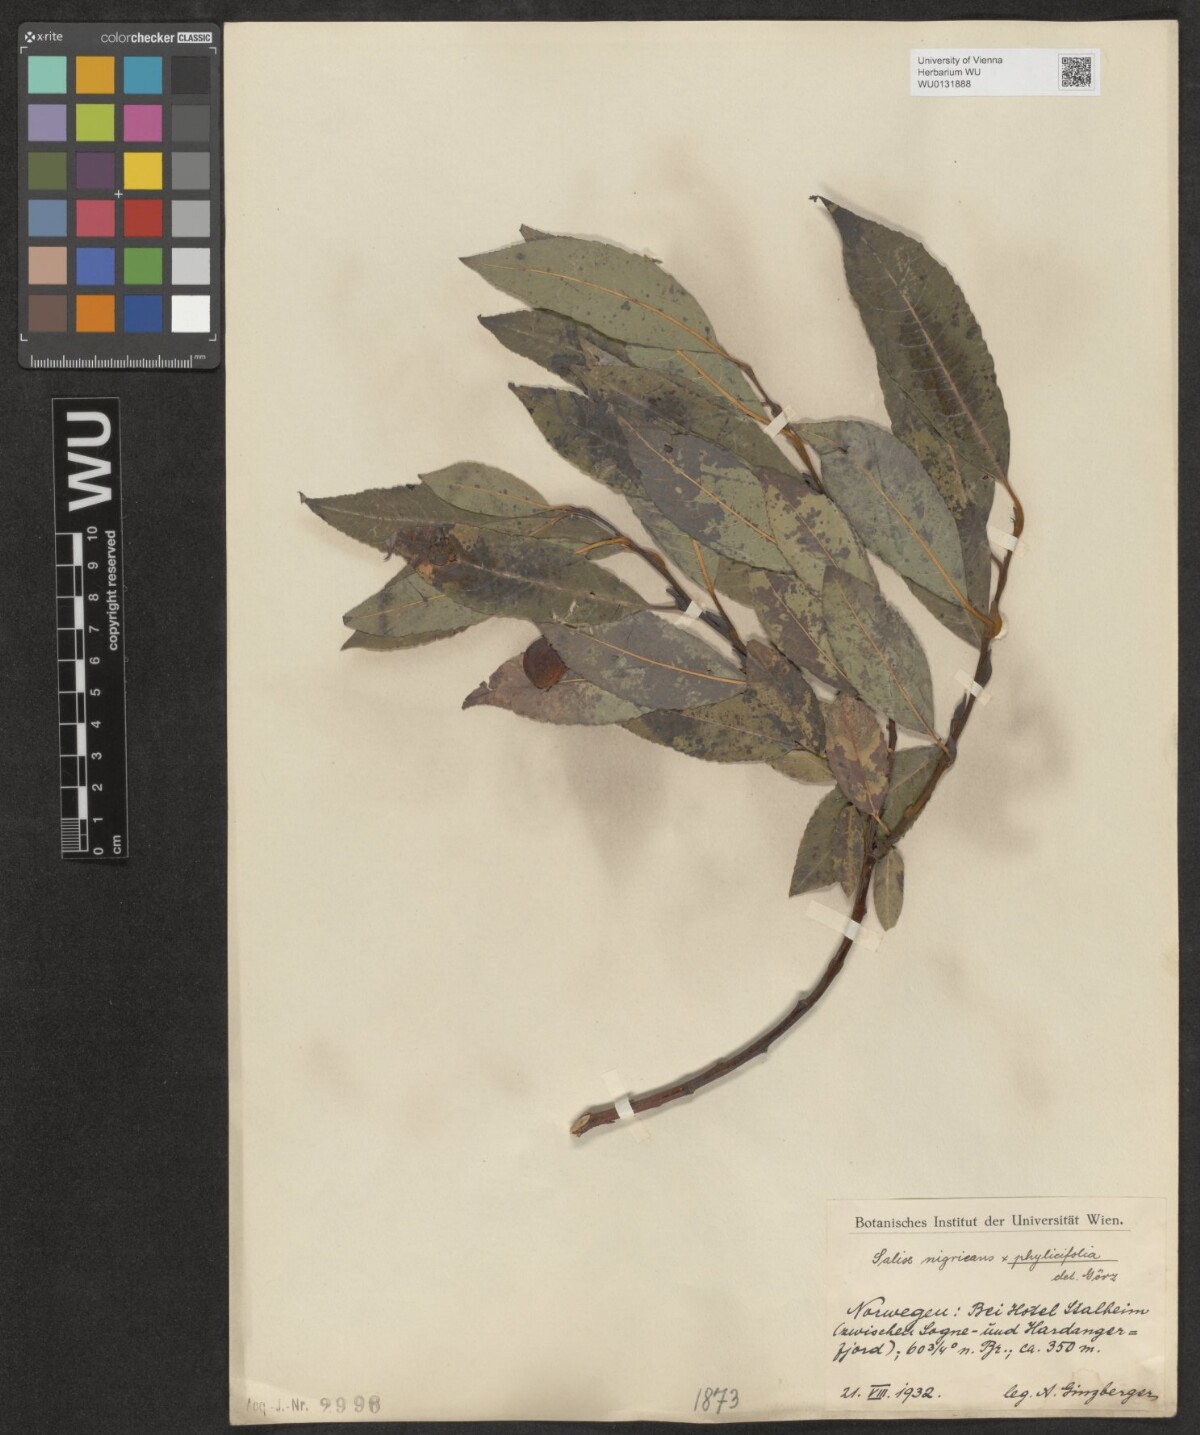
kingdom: Plantae
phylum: Tracheophyta
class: Magnoliopsida
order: Malpighiales
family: Salicaceae
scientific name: Salicaceae
